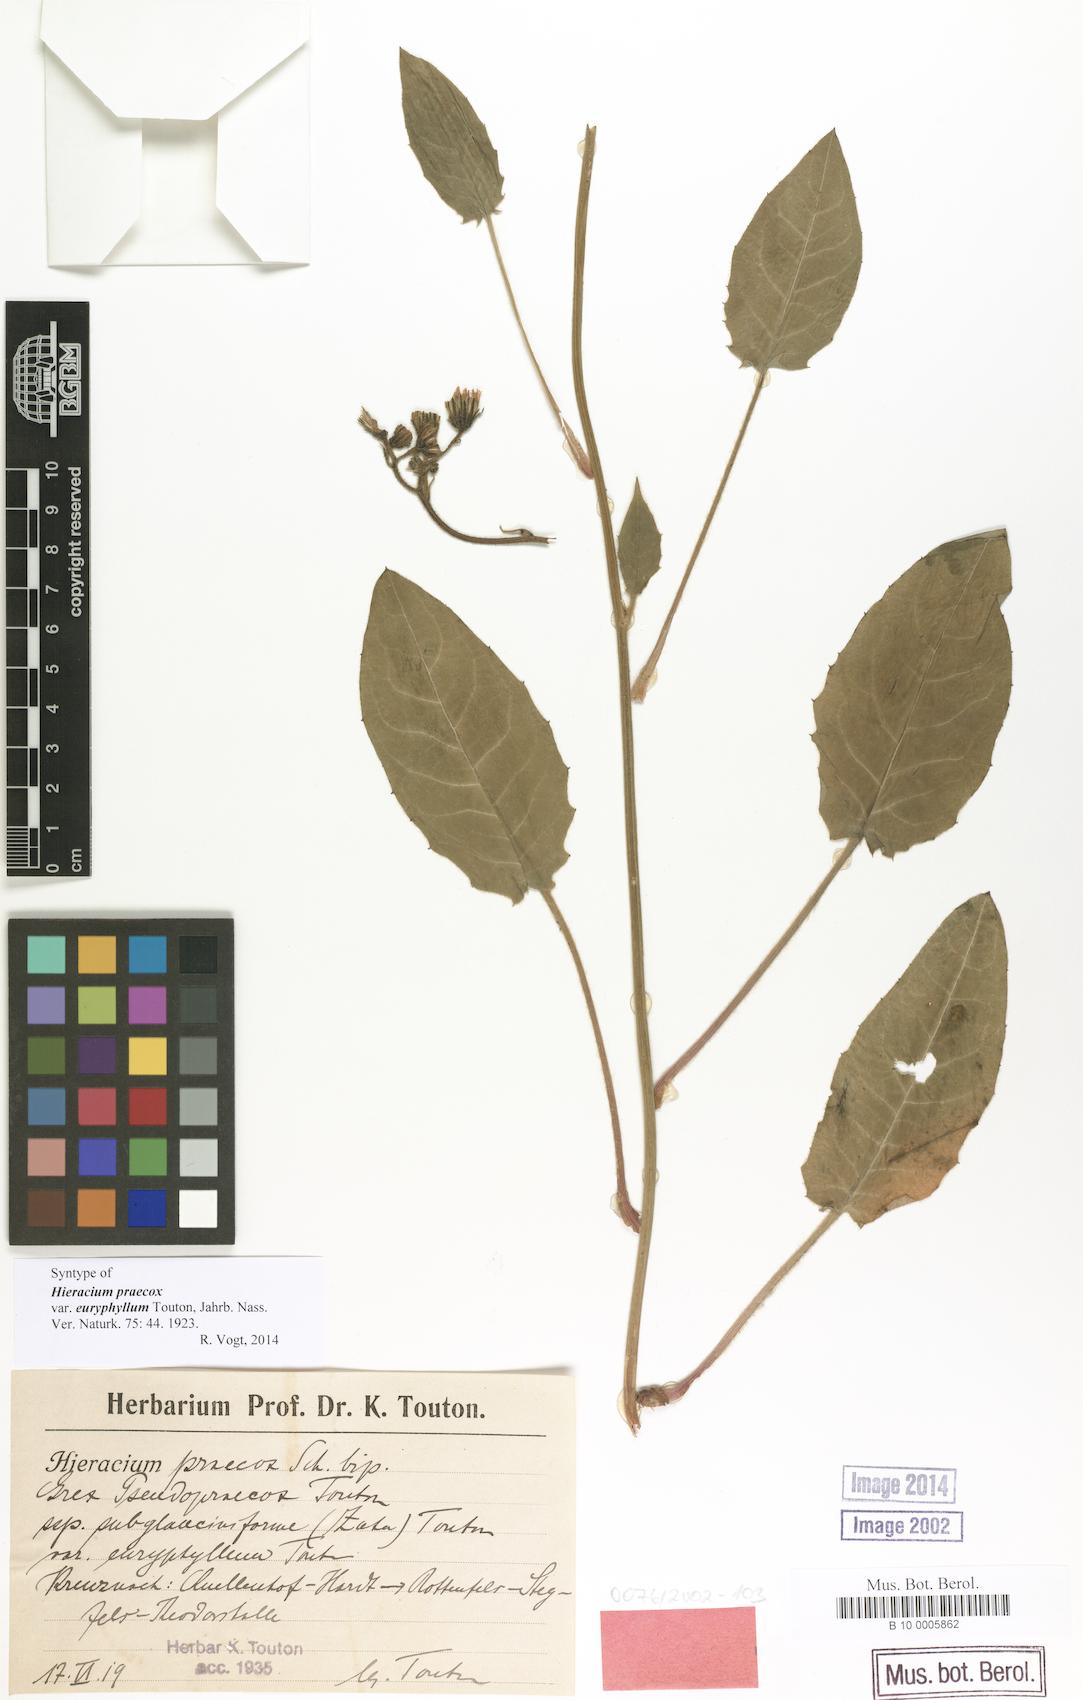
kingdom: Plantae
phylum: Tracheophyta
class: Magnoliopsida
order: Asterales
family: Asteraceae
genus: Hieracium
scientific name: Hieracium praecox
